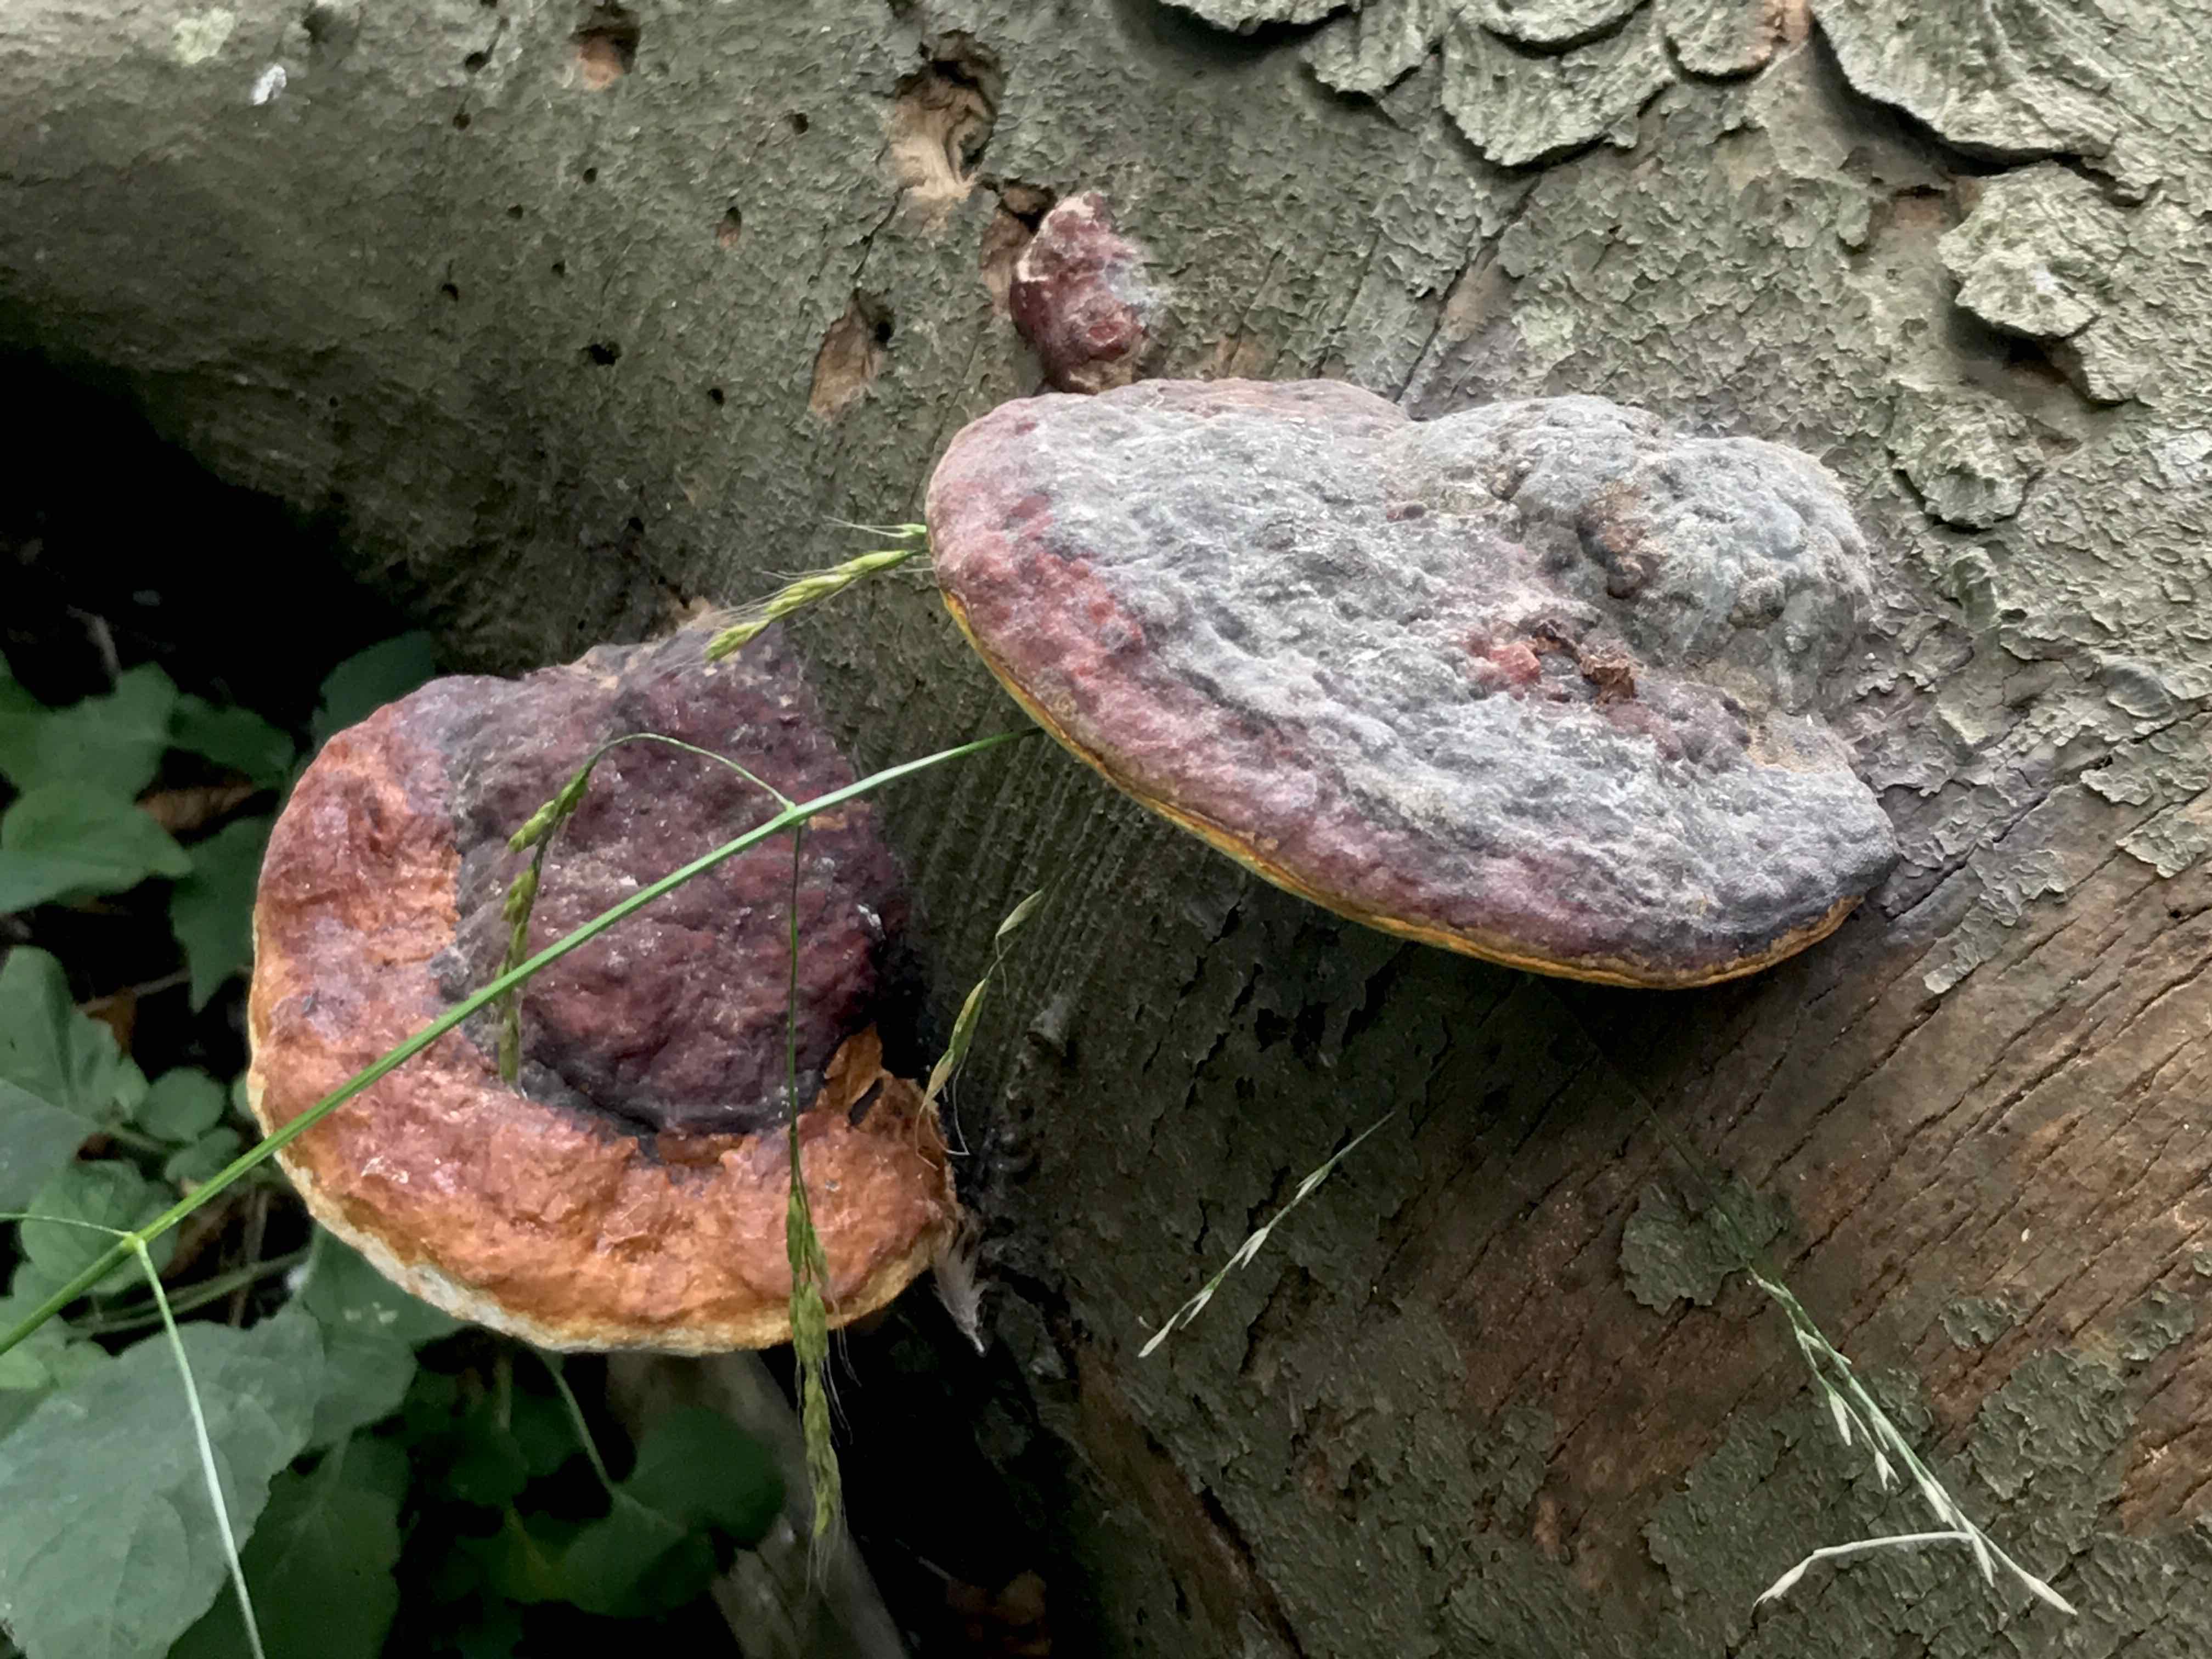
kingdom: Fungi
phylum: Basidiomycota
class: Agaricomycetes
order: Polyporales
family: Fomitopsidaceae
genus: Fomitopsis
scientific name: Fomitopsis pinicola
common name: randbæltet hovporesvamp
